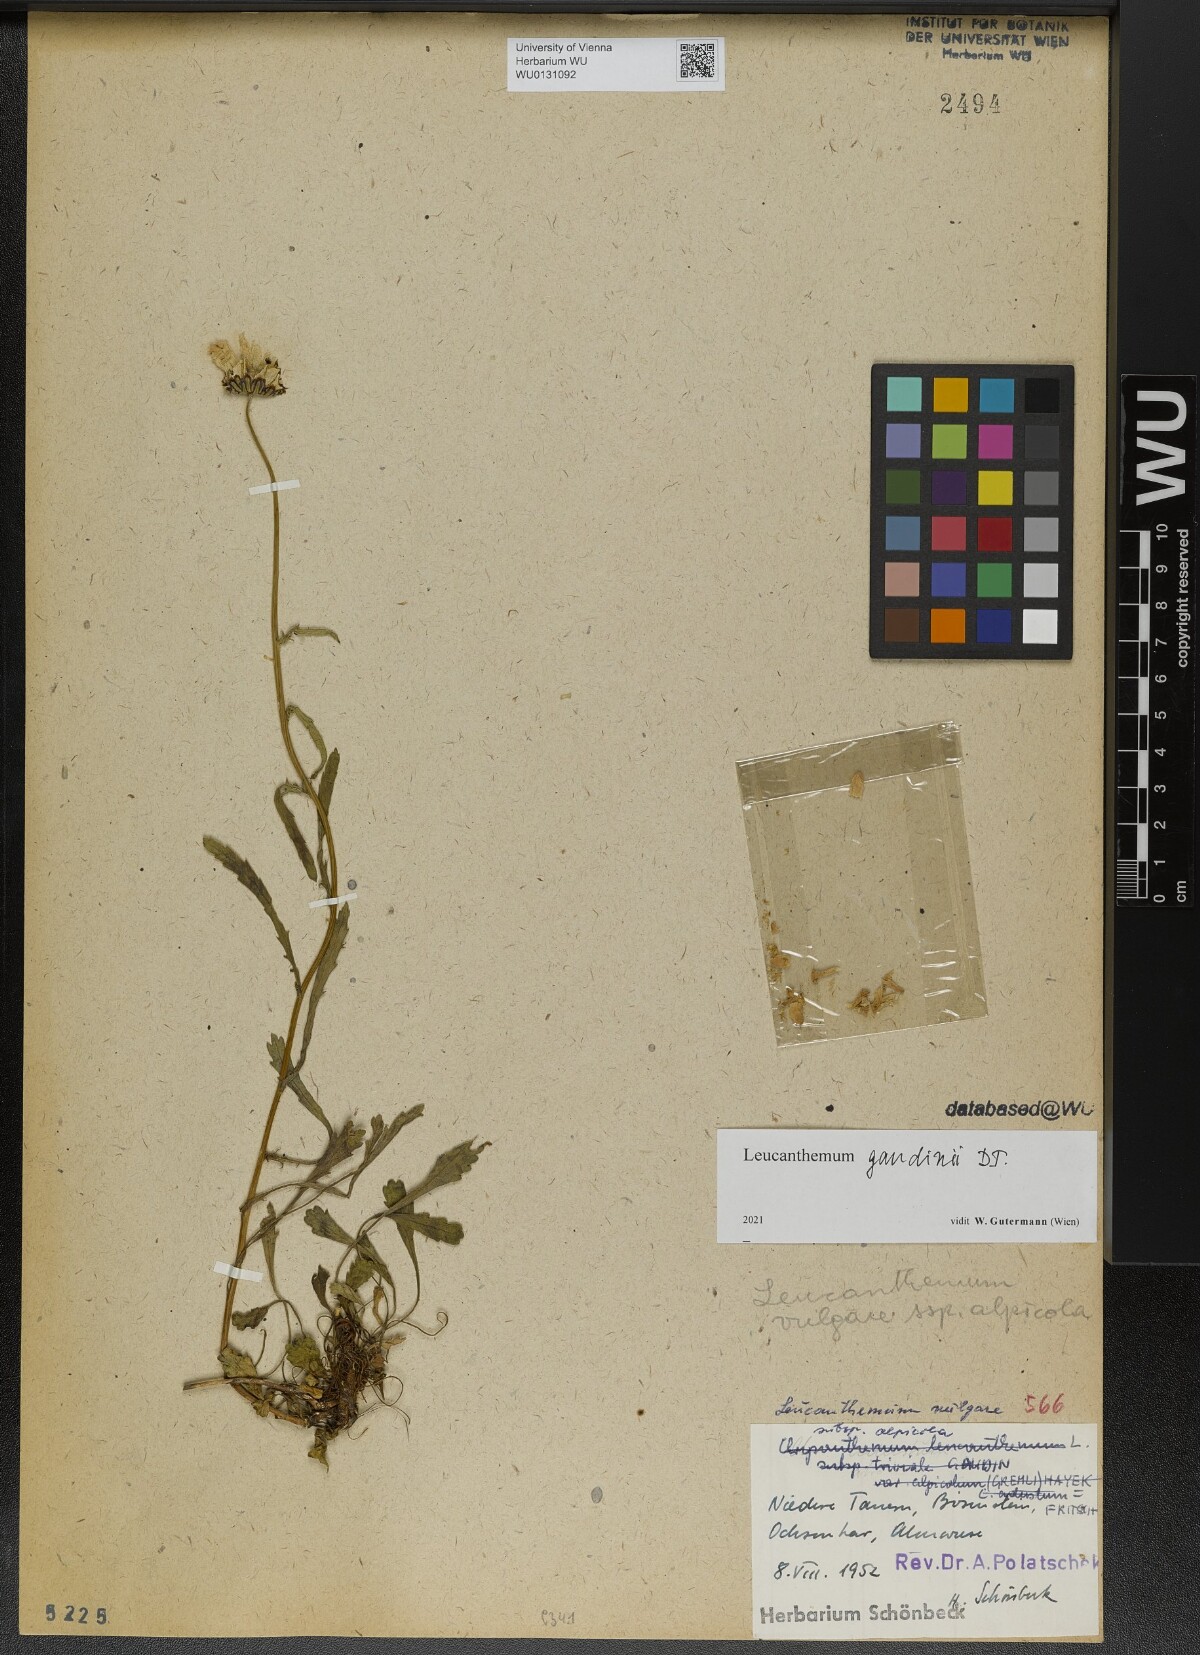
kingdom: Plantae
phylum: Tracheophyta
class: Magnoliopsida
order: Asterales
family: Asteraceae
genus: Leucanthemum
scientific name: Leucanthemum gaudinii
